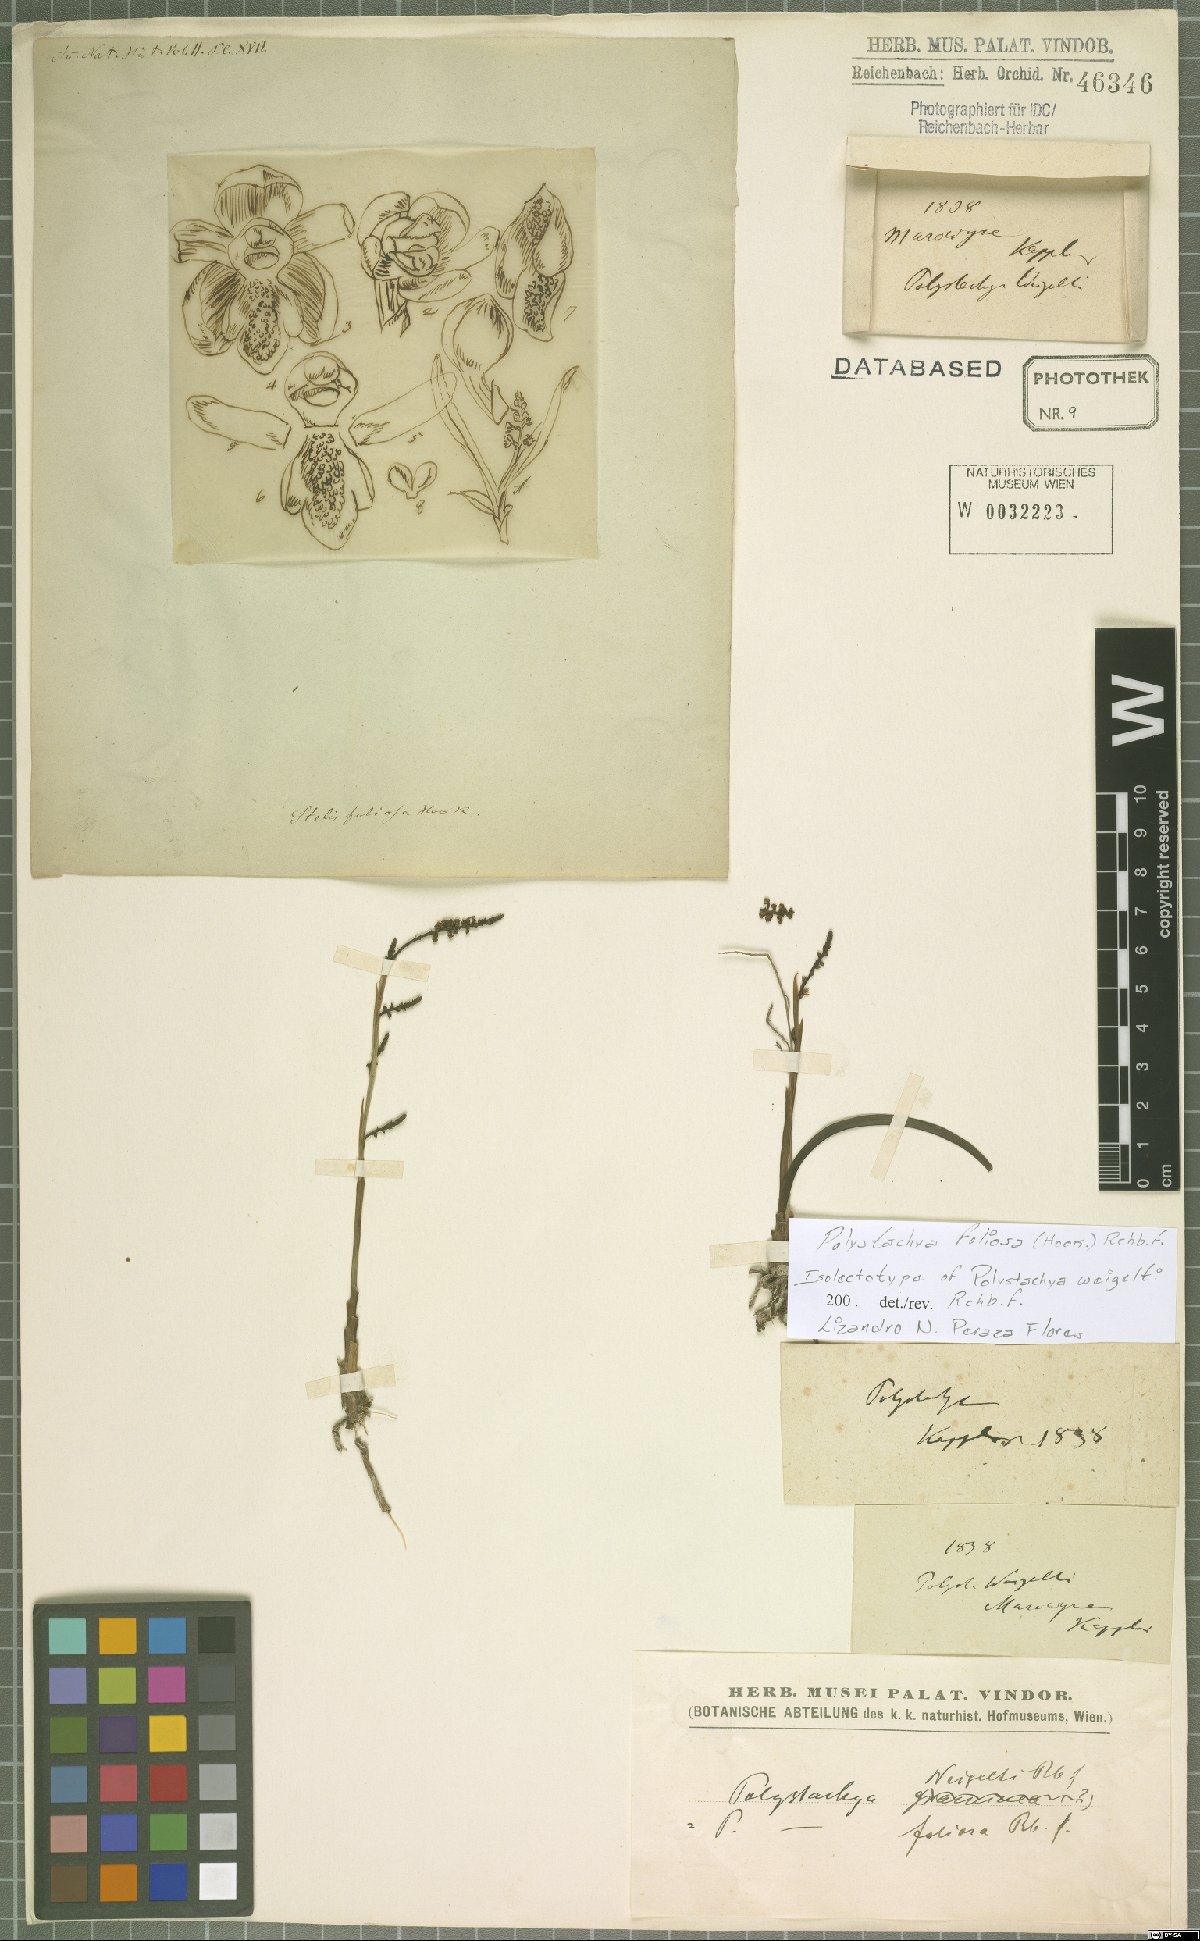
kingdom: Plantae
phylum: Tracheophyta
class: Liliopsida
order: Asparagales
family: Orchidaceae
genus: Polystachya
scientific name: Polystachya foliosa
